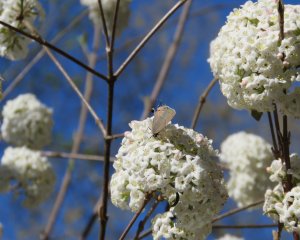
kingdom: Animalia
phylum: Arthropoda
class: Insecta
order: Lepidoptera
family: Lycaenidae
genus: Strymon
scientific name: Strymon melinus
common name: Gray Hairstreak
